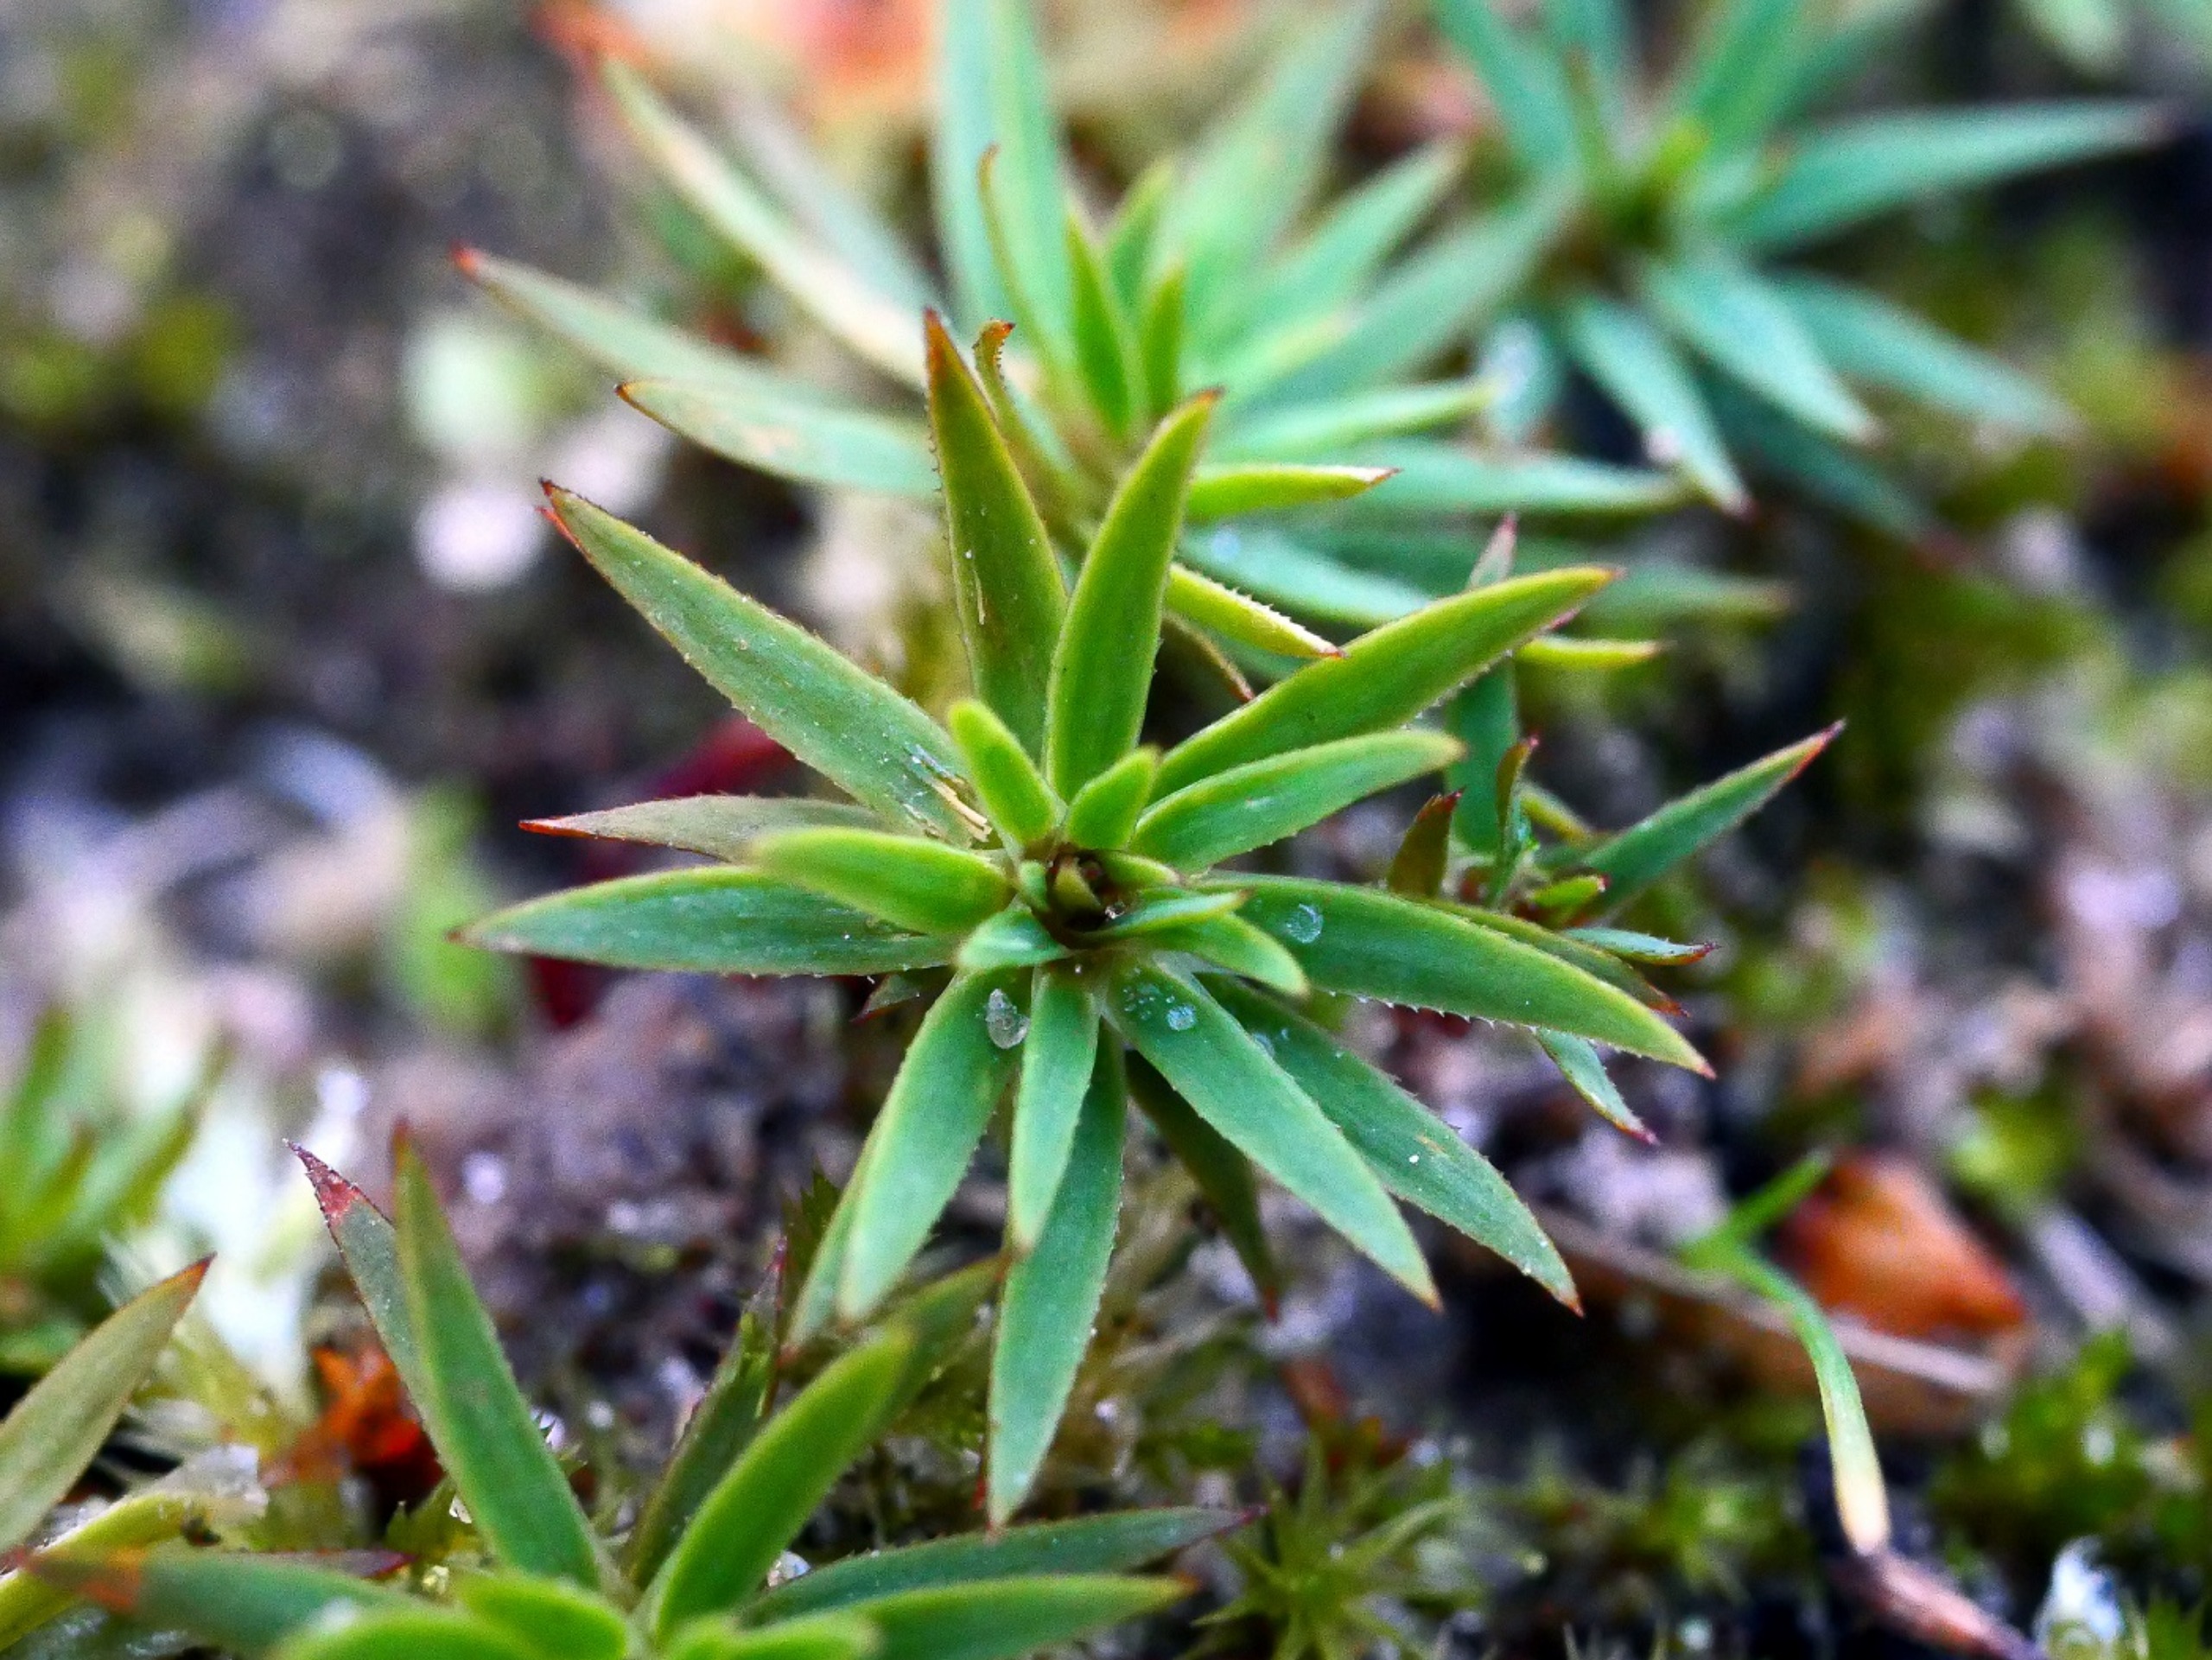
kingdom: Plantae
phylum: Bryophyta
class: Polytrichopsida
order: Polytrichales
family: Polytrichaceae
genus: Pogonatum
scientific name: Pogonatum urnigerum
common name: Stor urnekapsel
